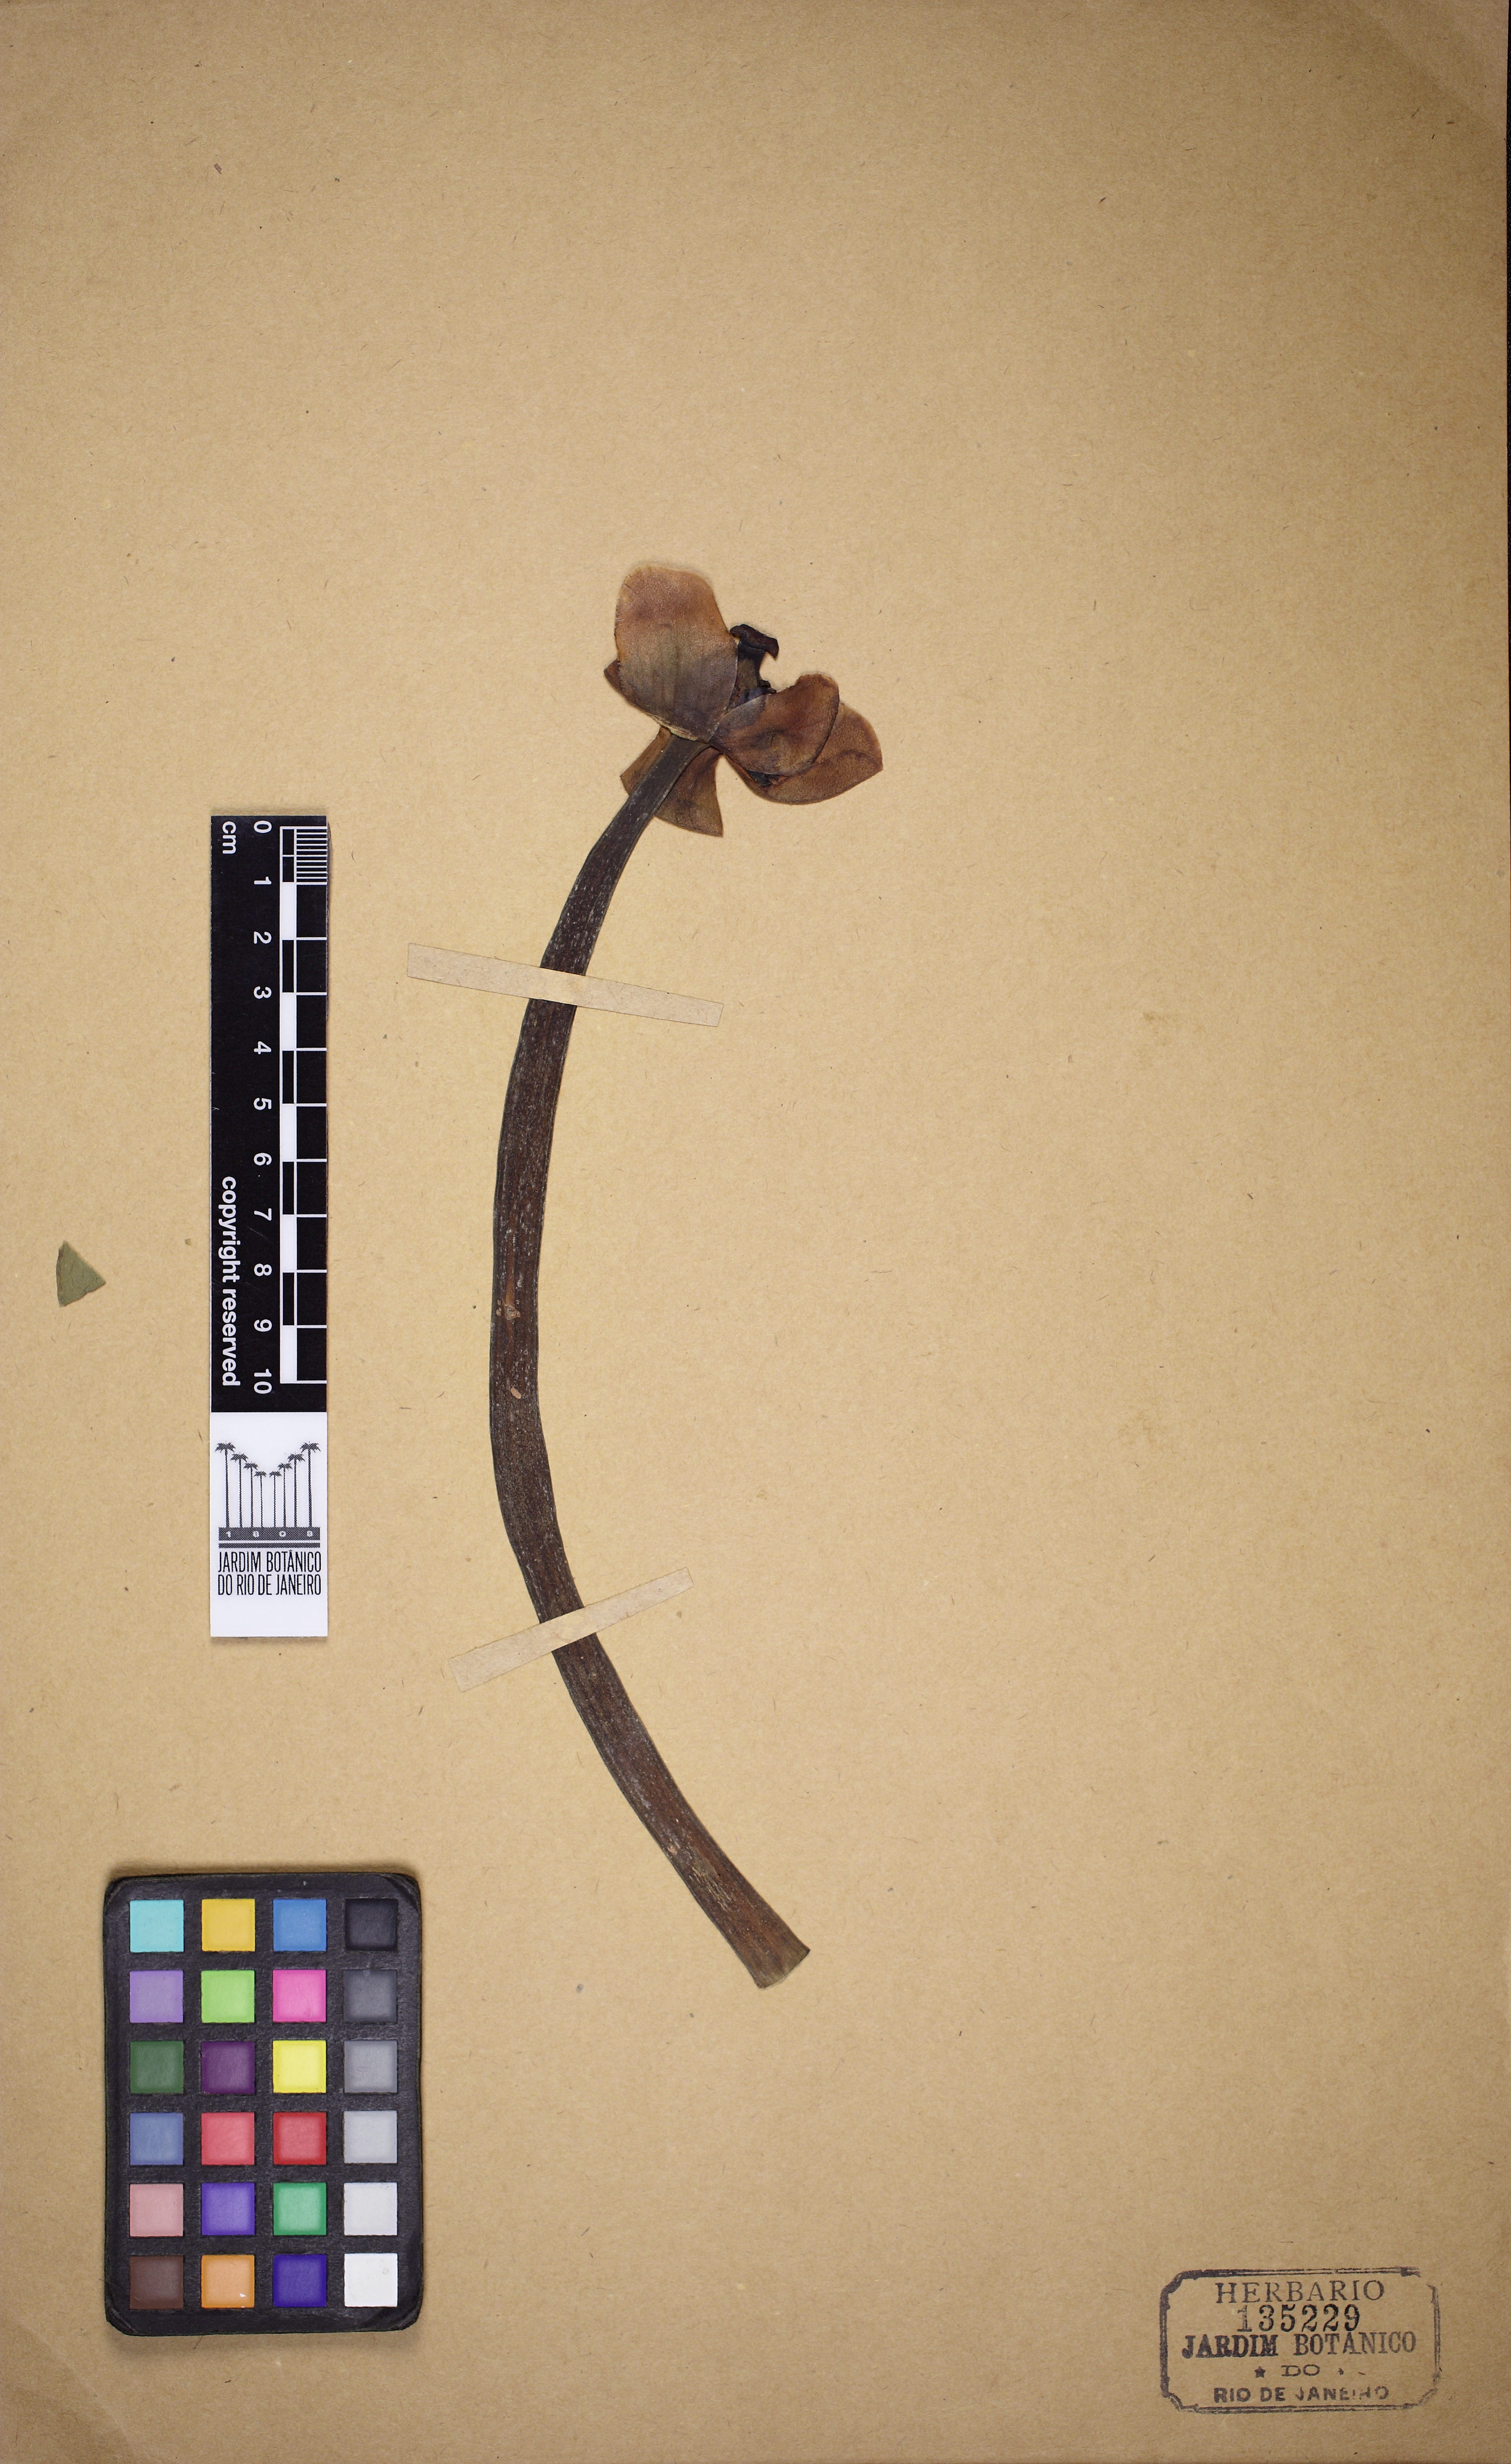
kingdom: Plantae
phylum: Tracheophyta
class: Magnoliopsida
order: Nymphaeales
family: Nymphaeaceae
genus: Nuphar
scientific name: Nuphar lutea
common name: Yellow water-lily
